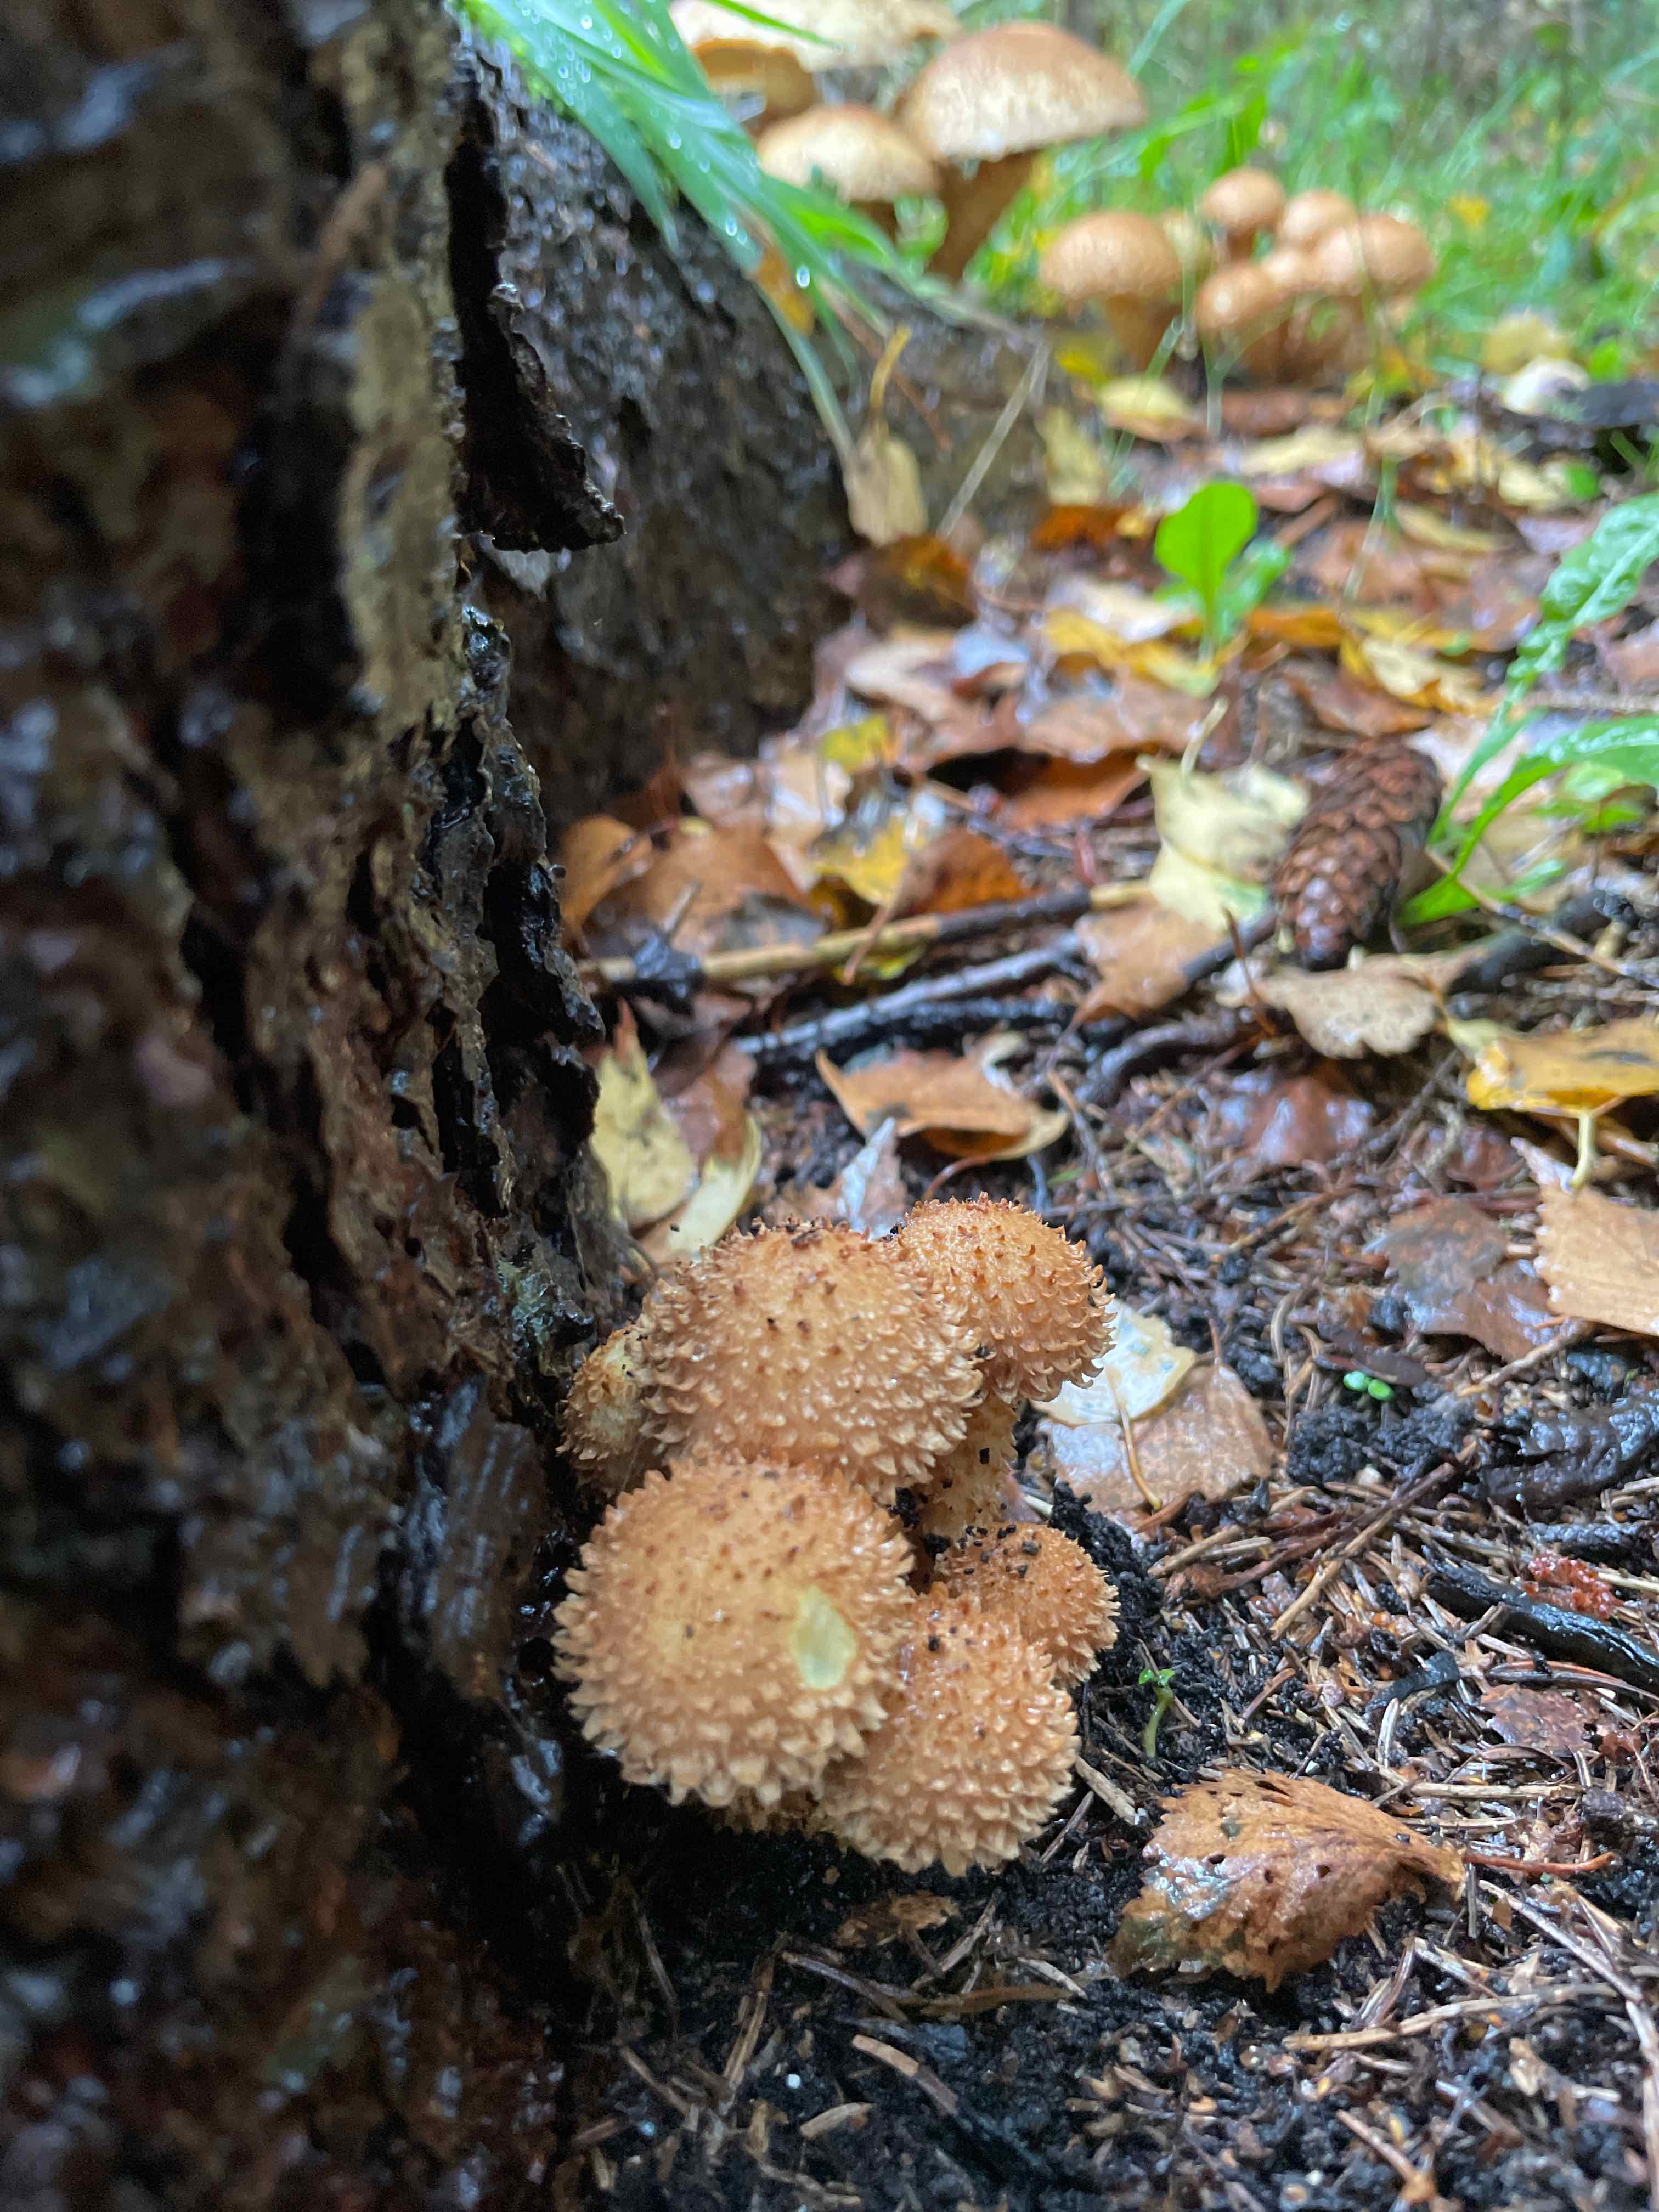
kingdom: Fungi
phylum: Basidiomycota
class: Agaricomycetes
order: Agaricales
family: Strophariaceae
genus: Pholiota
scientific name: Pholiota squarrosa
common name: krumskællet skælhat
